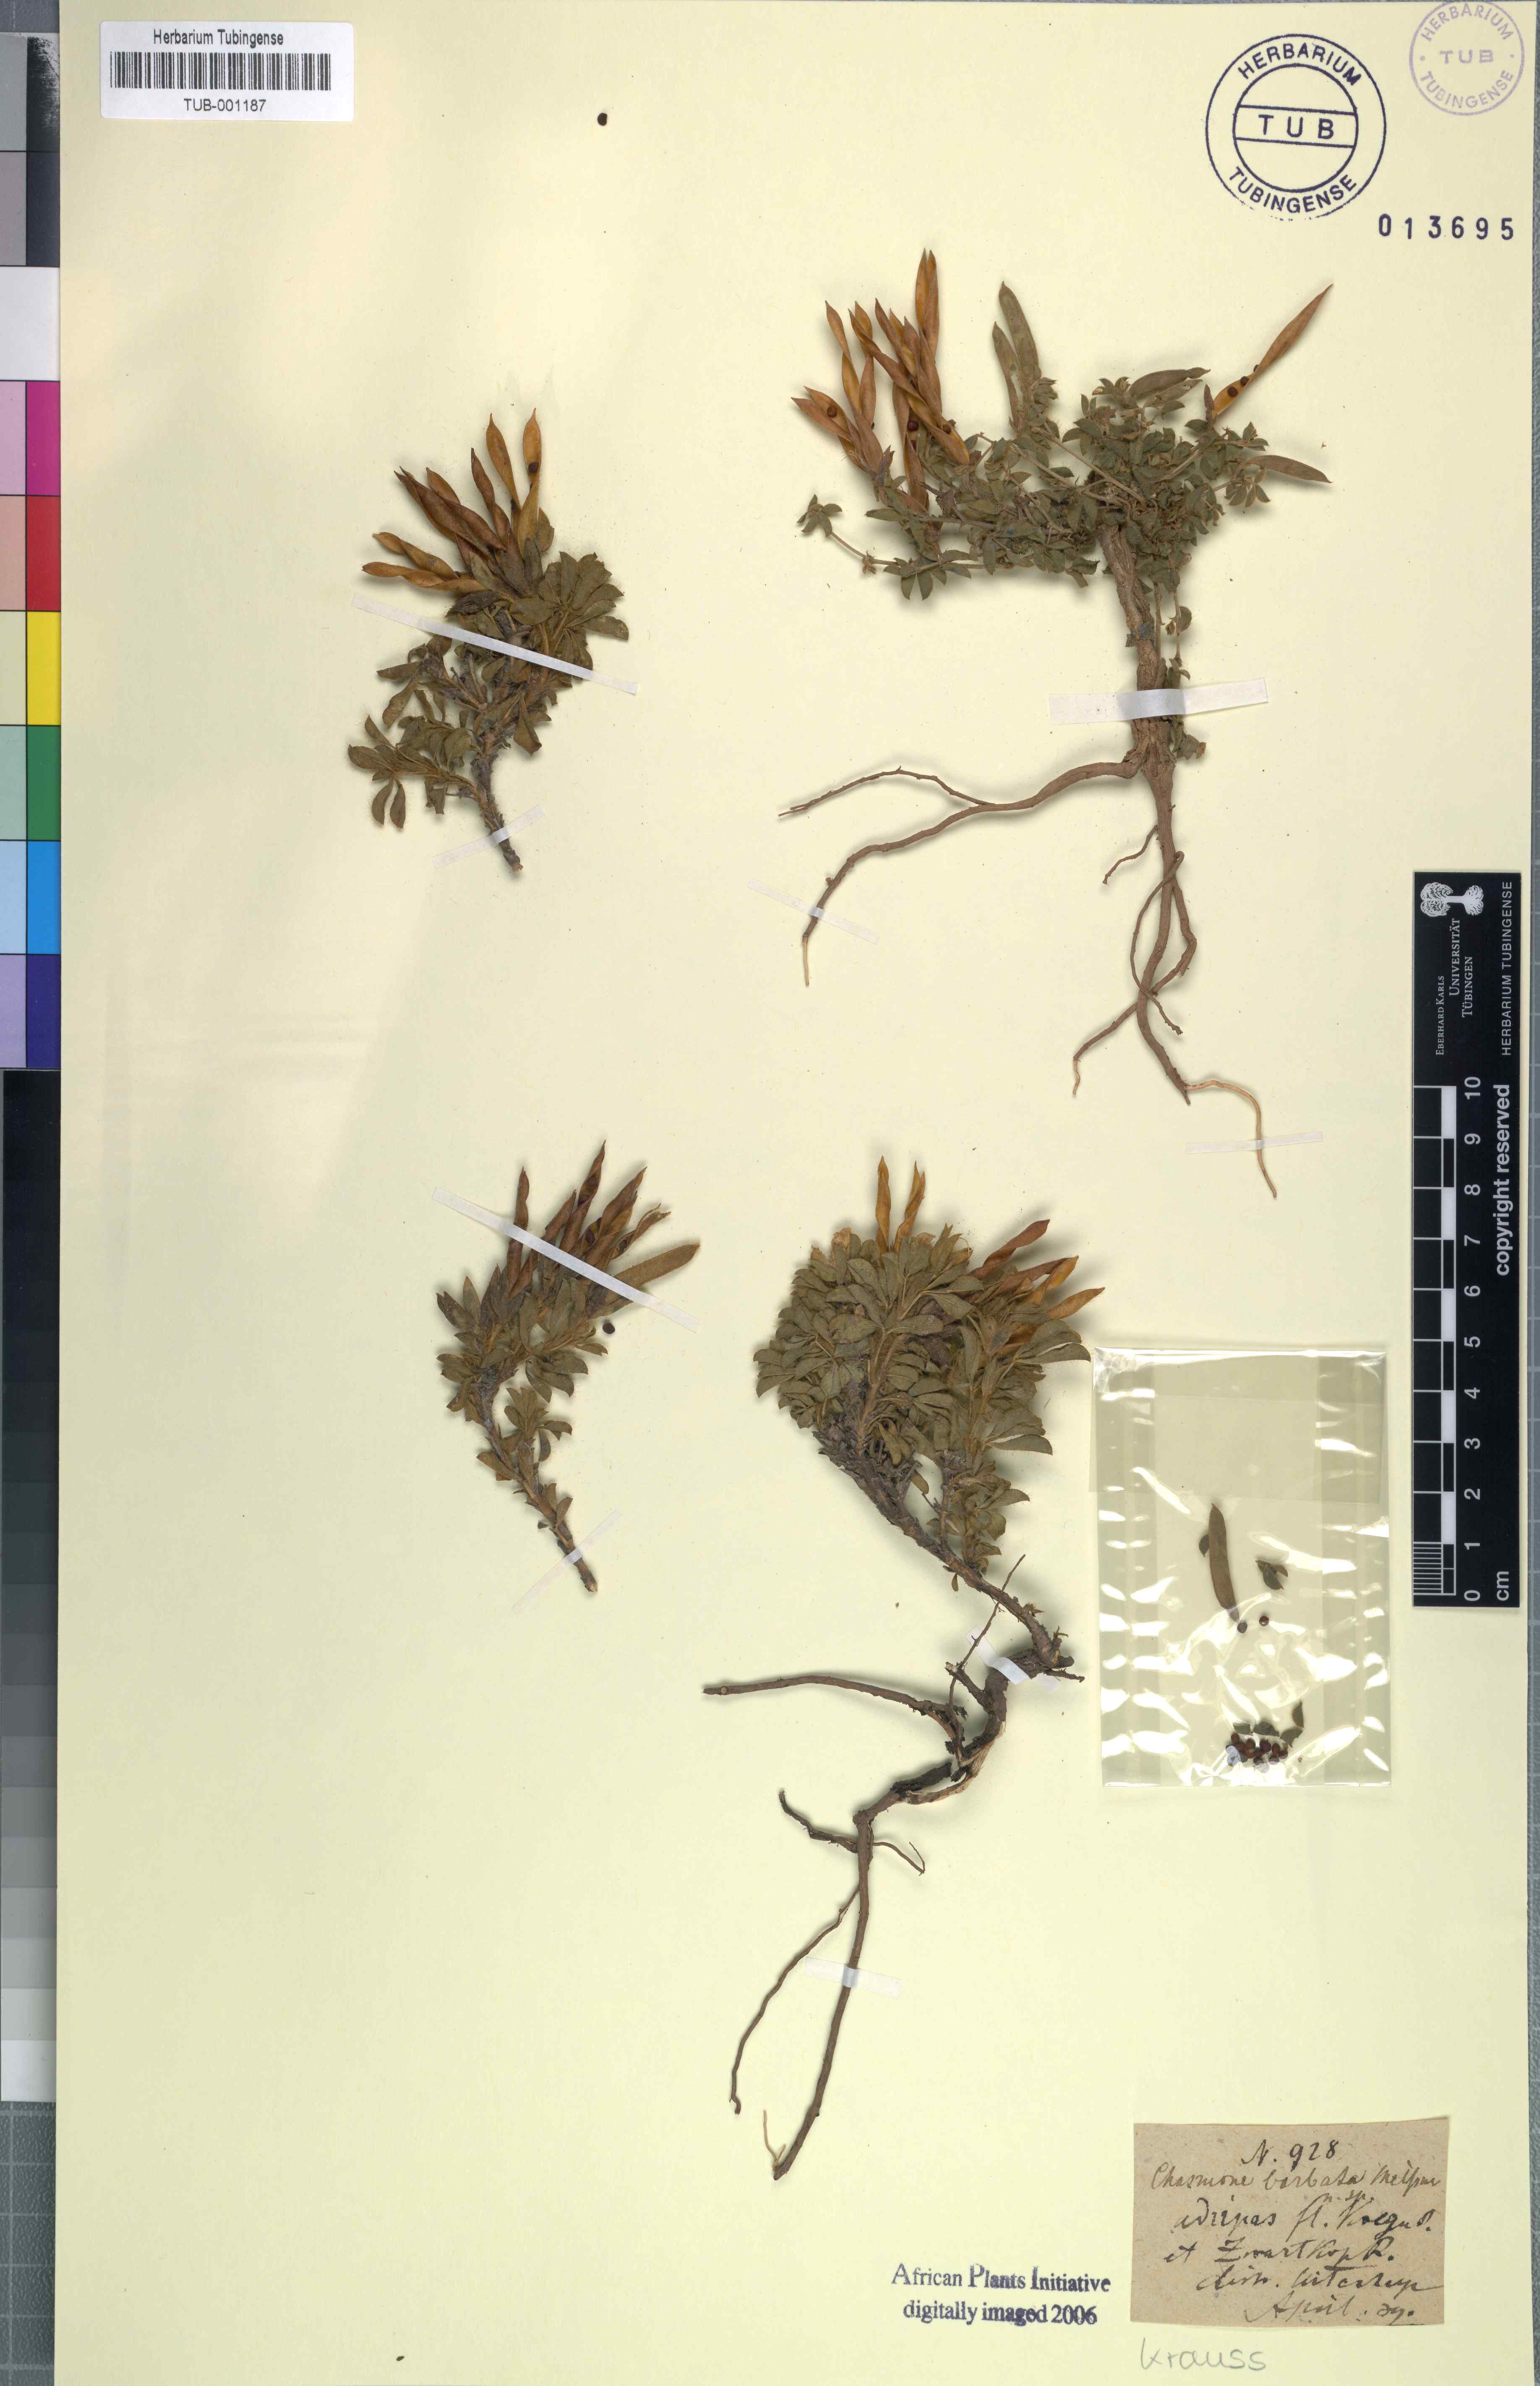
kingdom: Plantae
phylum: Tracheophyta
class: Magnoliopsida
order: Fabales
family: Fabaceae
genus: Argyrolobium
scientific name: Argyrolobium barbatum
